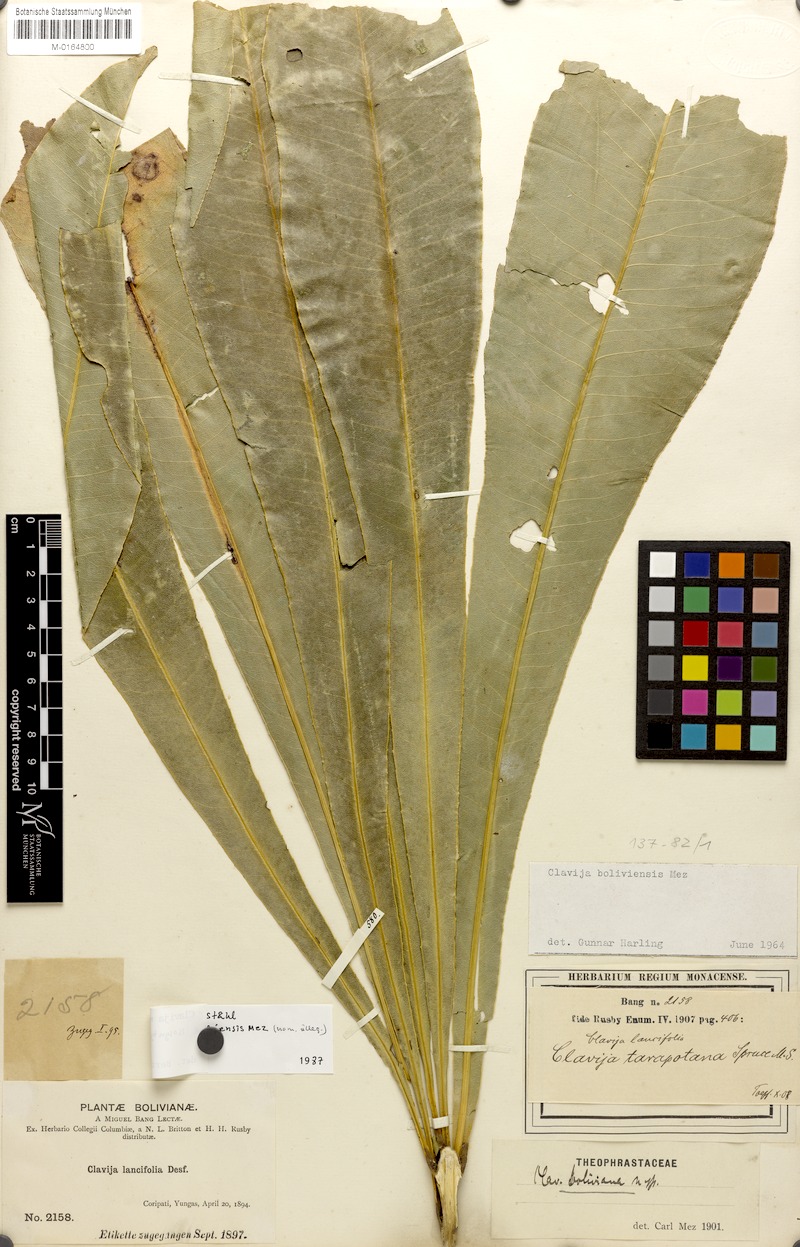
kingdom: Plantae
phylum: Tracheophyta
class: Magnoliopsida
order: Ericales
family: Primulaceae
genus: Clavija
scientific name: Clavija nutans
